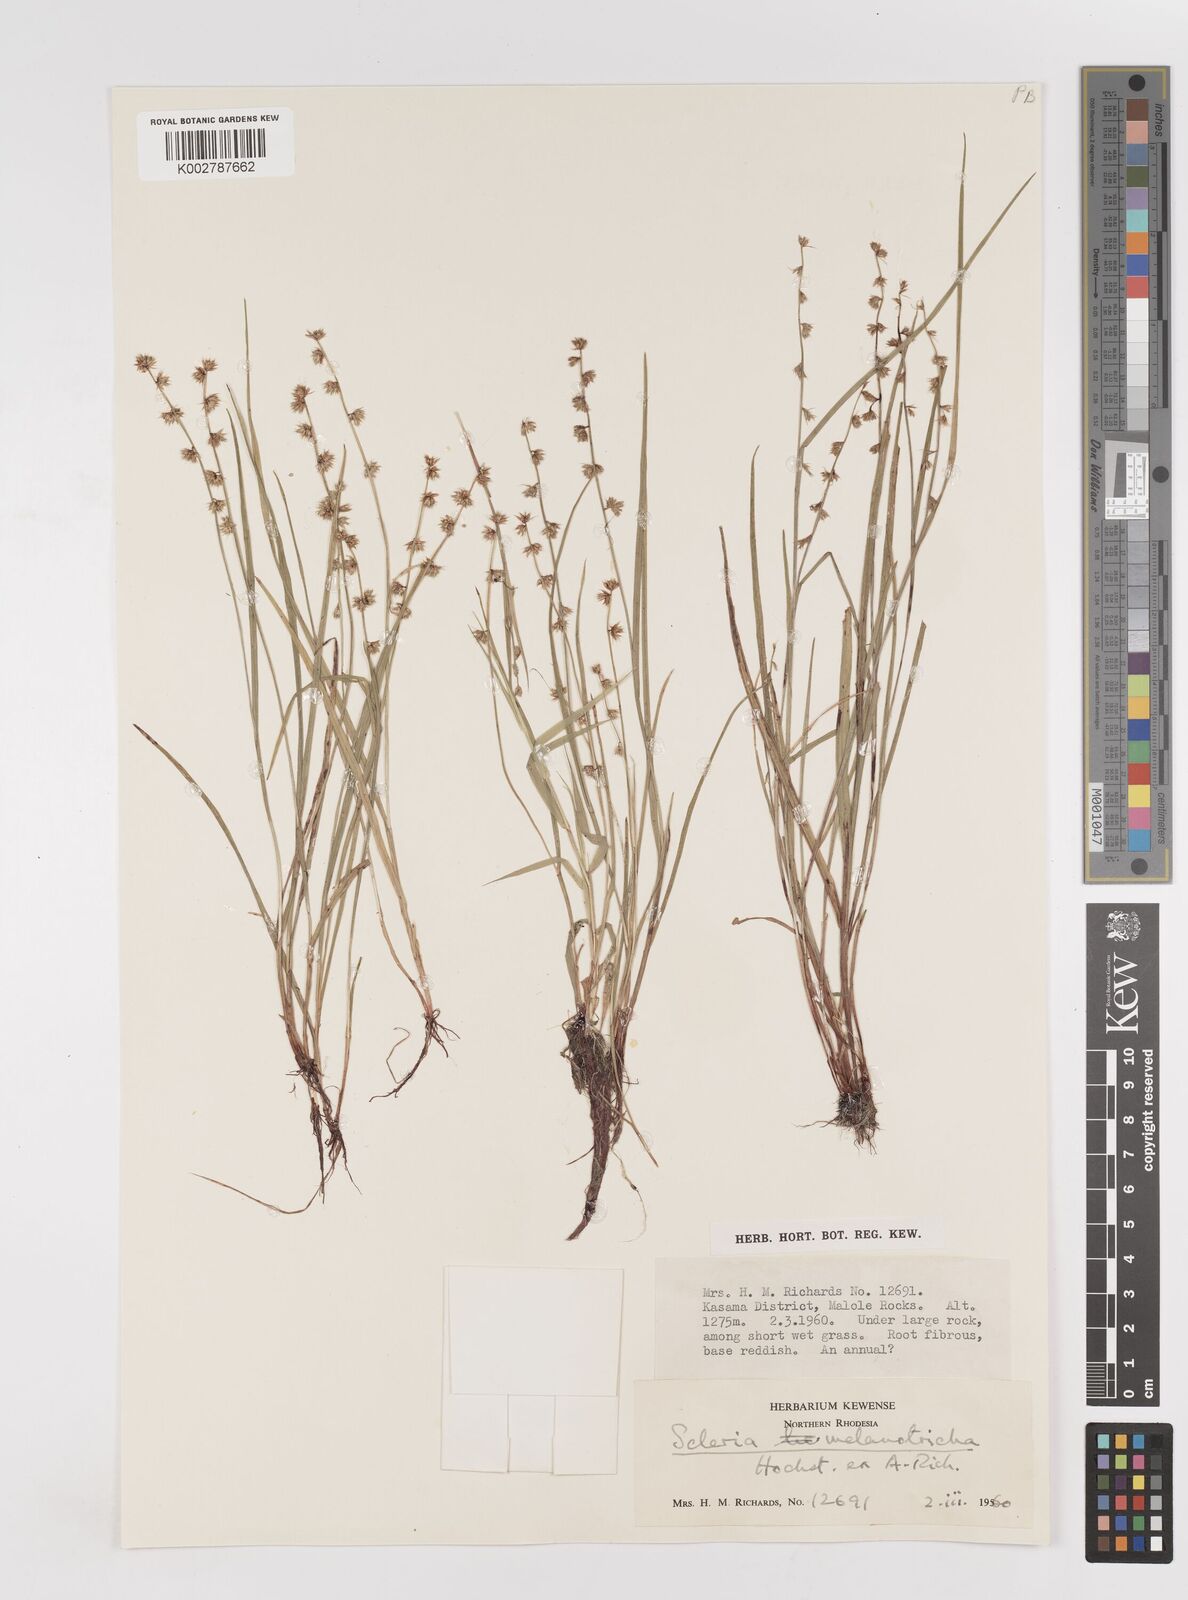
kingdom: Plantae
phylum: Tracheophyta
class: Liliopsida
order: Poales
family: Cyperaceae
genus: Scleria
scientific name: Scleria melanotricha
